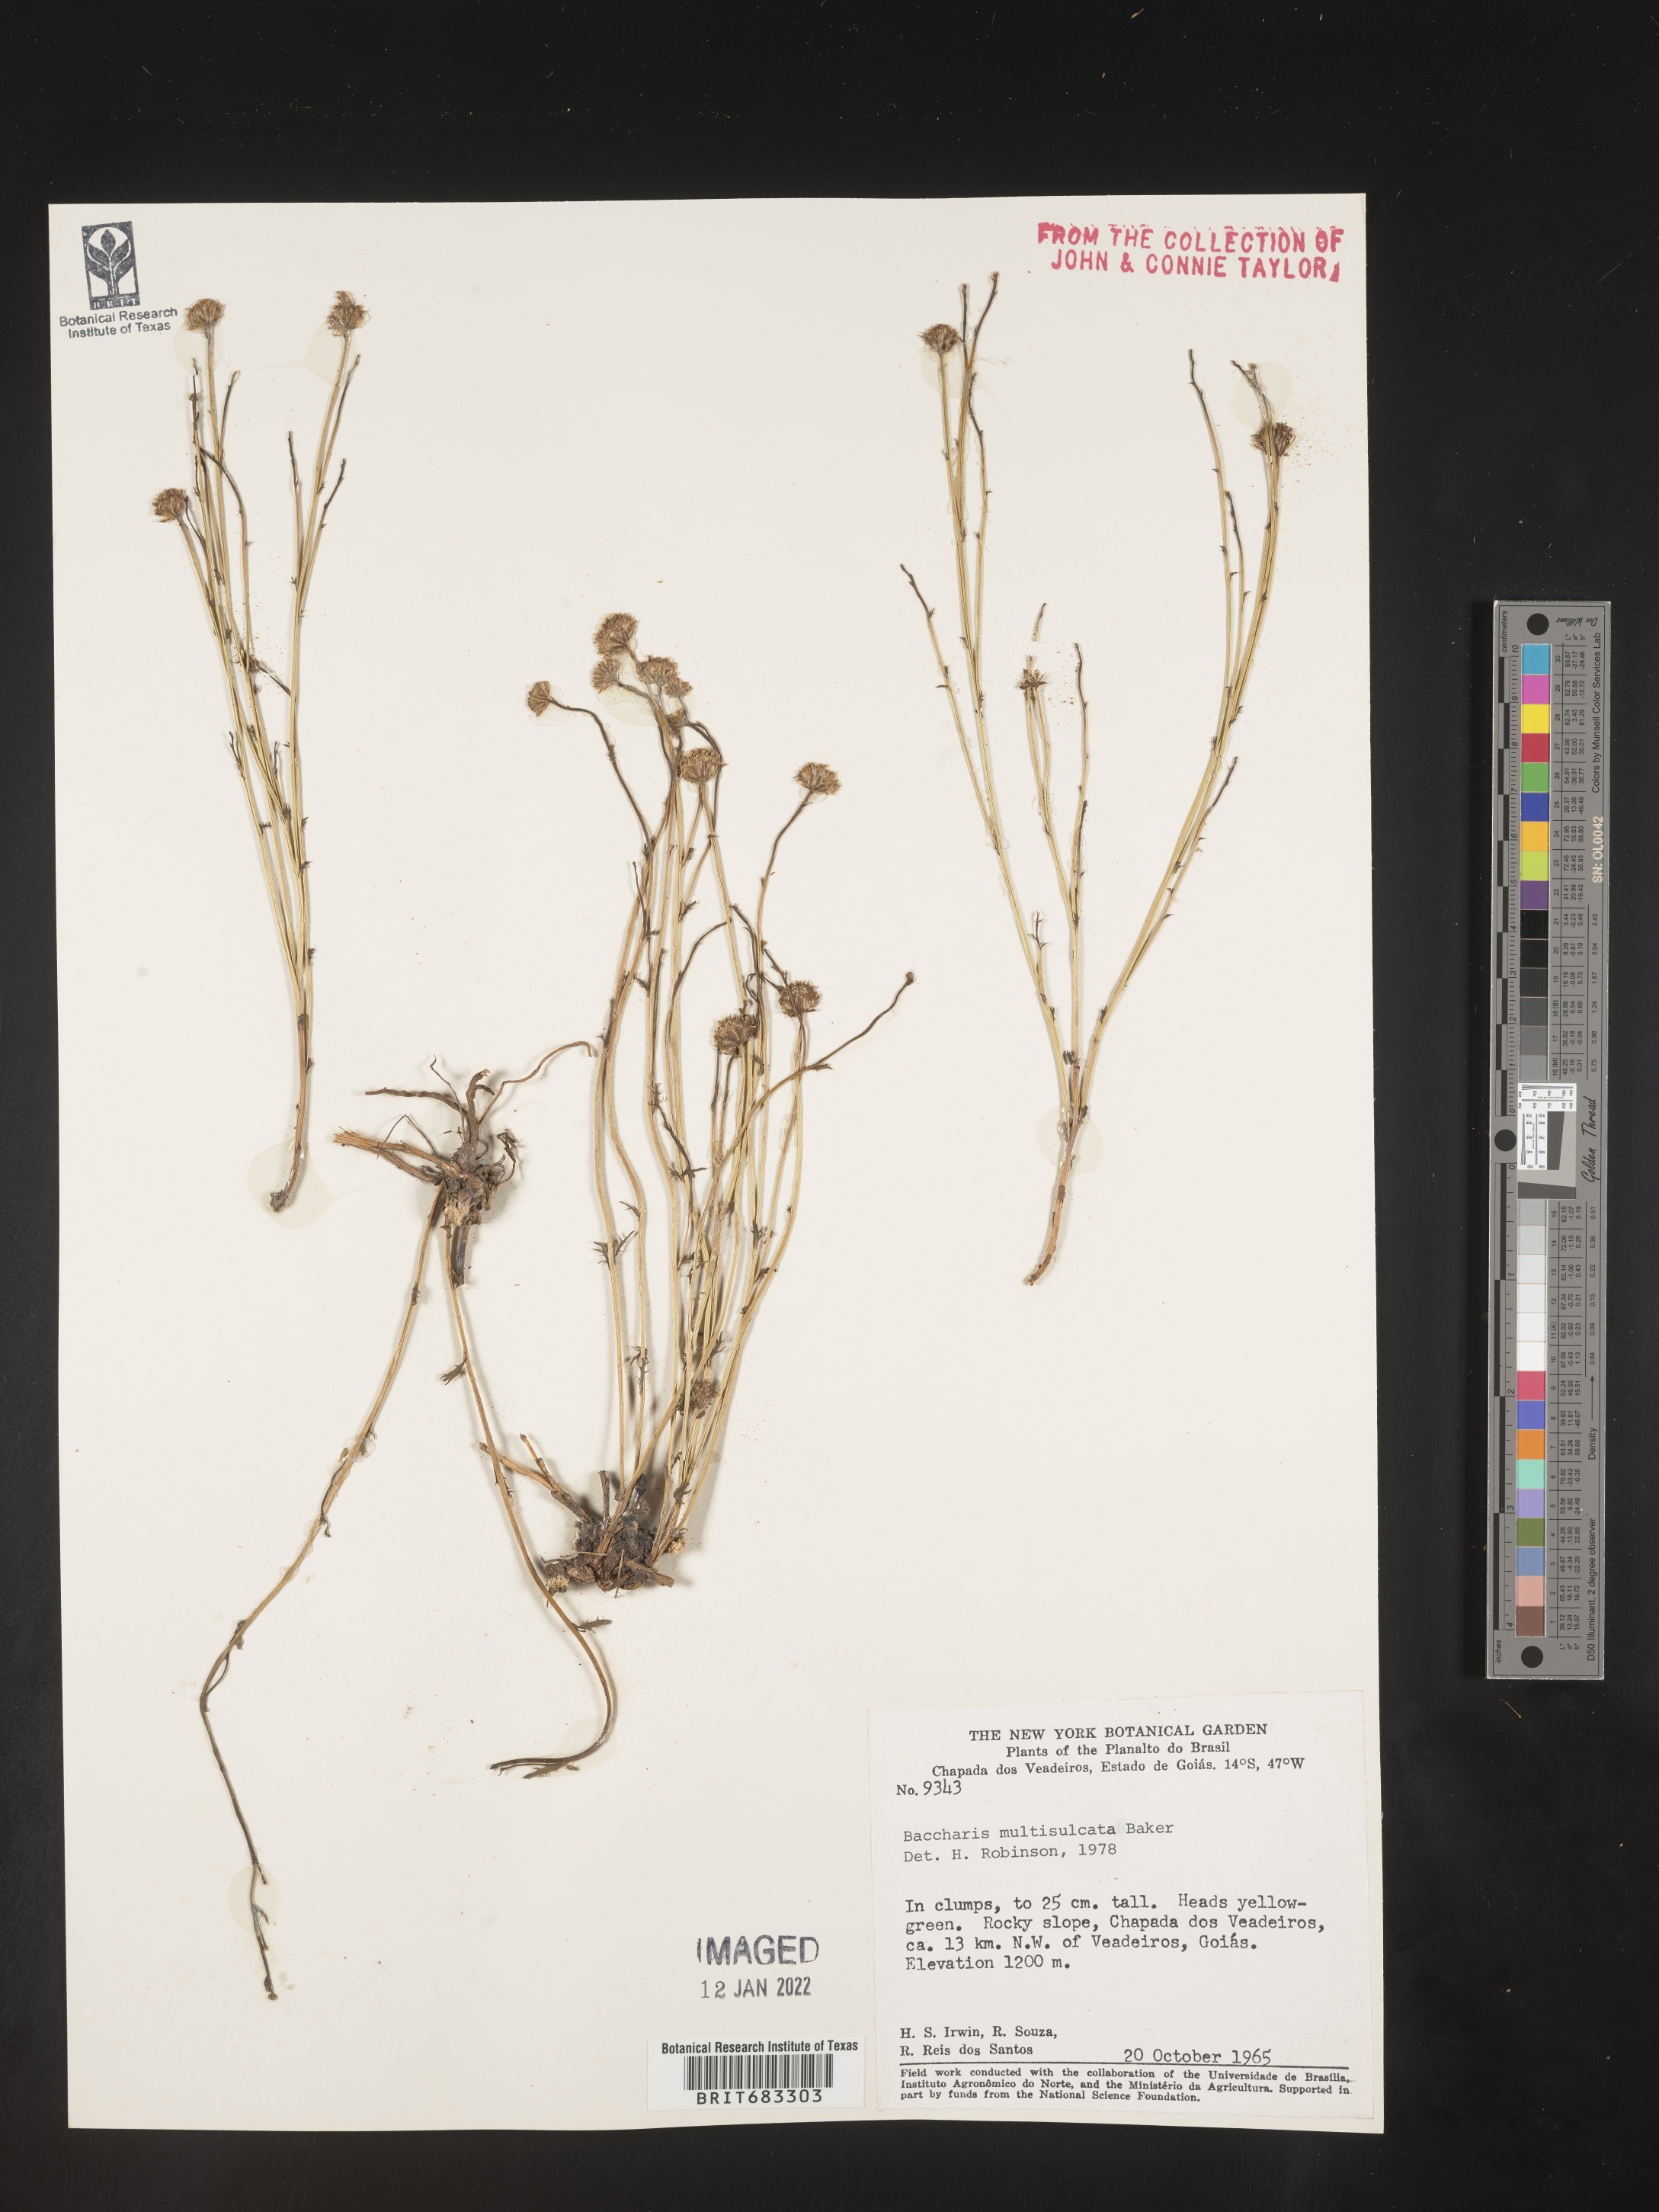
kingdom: Plantae
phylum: Tracheophyta
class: Magnoliopsida
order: Asterales
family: Asteraceae
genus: Baccharis
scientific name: Baccharis
